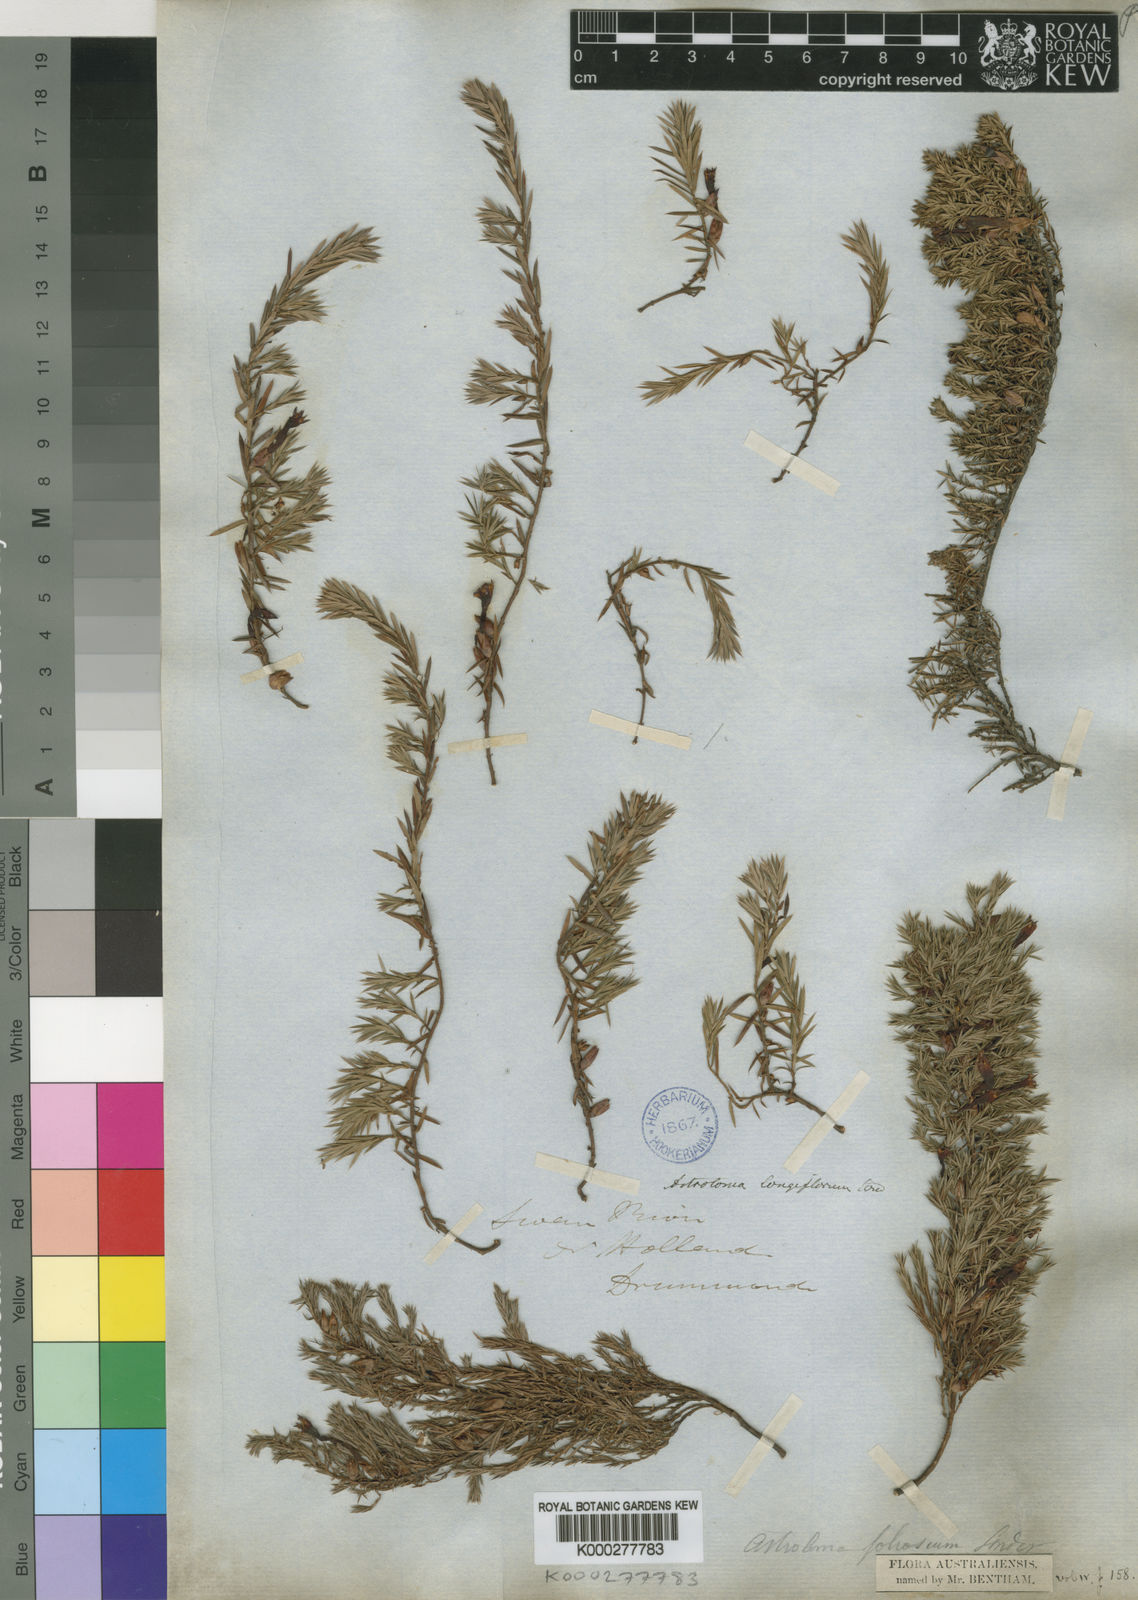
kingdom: Plantae
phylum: Tracheophyta
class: Magnoliopsida
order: Ericales
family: Ericaceae
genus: Styphelia
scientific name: Styphelia discolor
